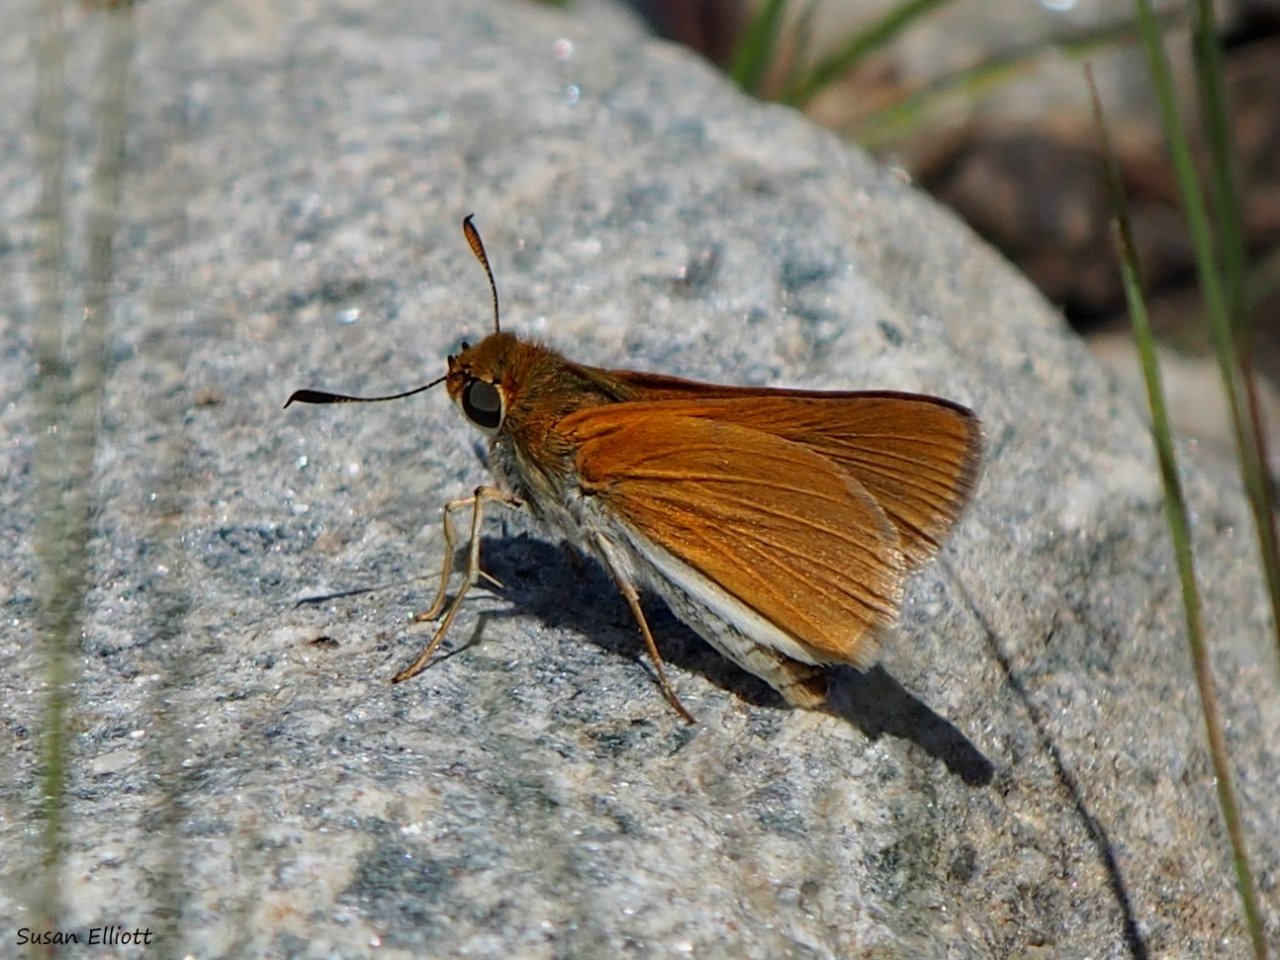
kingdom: Animalia
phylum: Arthropoda
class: Insecta
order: Lepidoptera
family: Hesperiidae
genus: Euphyes
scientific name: Euphyes bimacula
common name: Two-spotted Skipper
